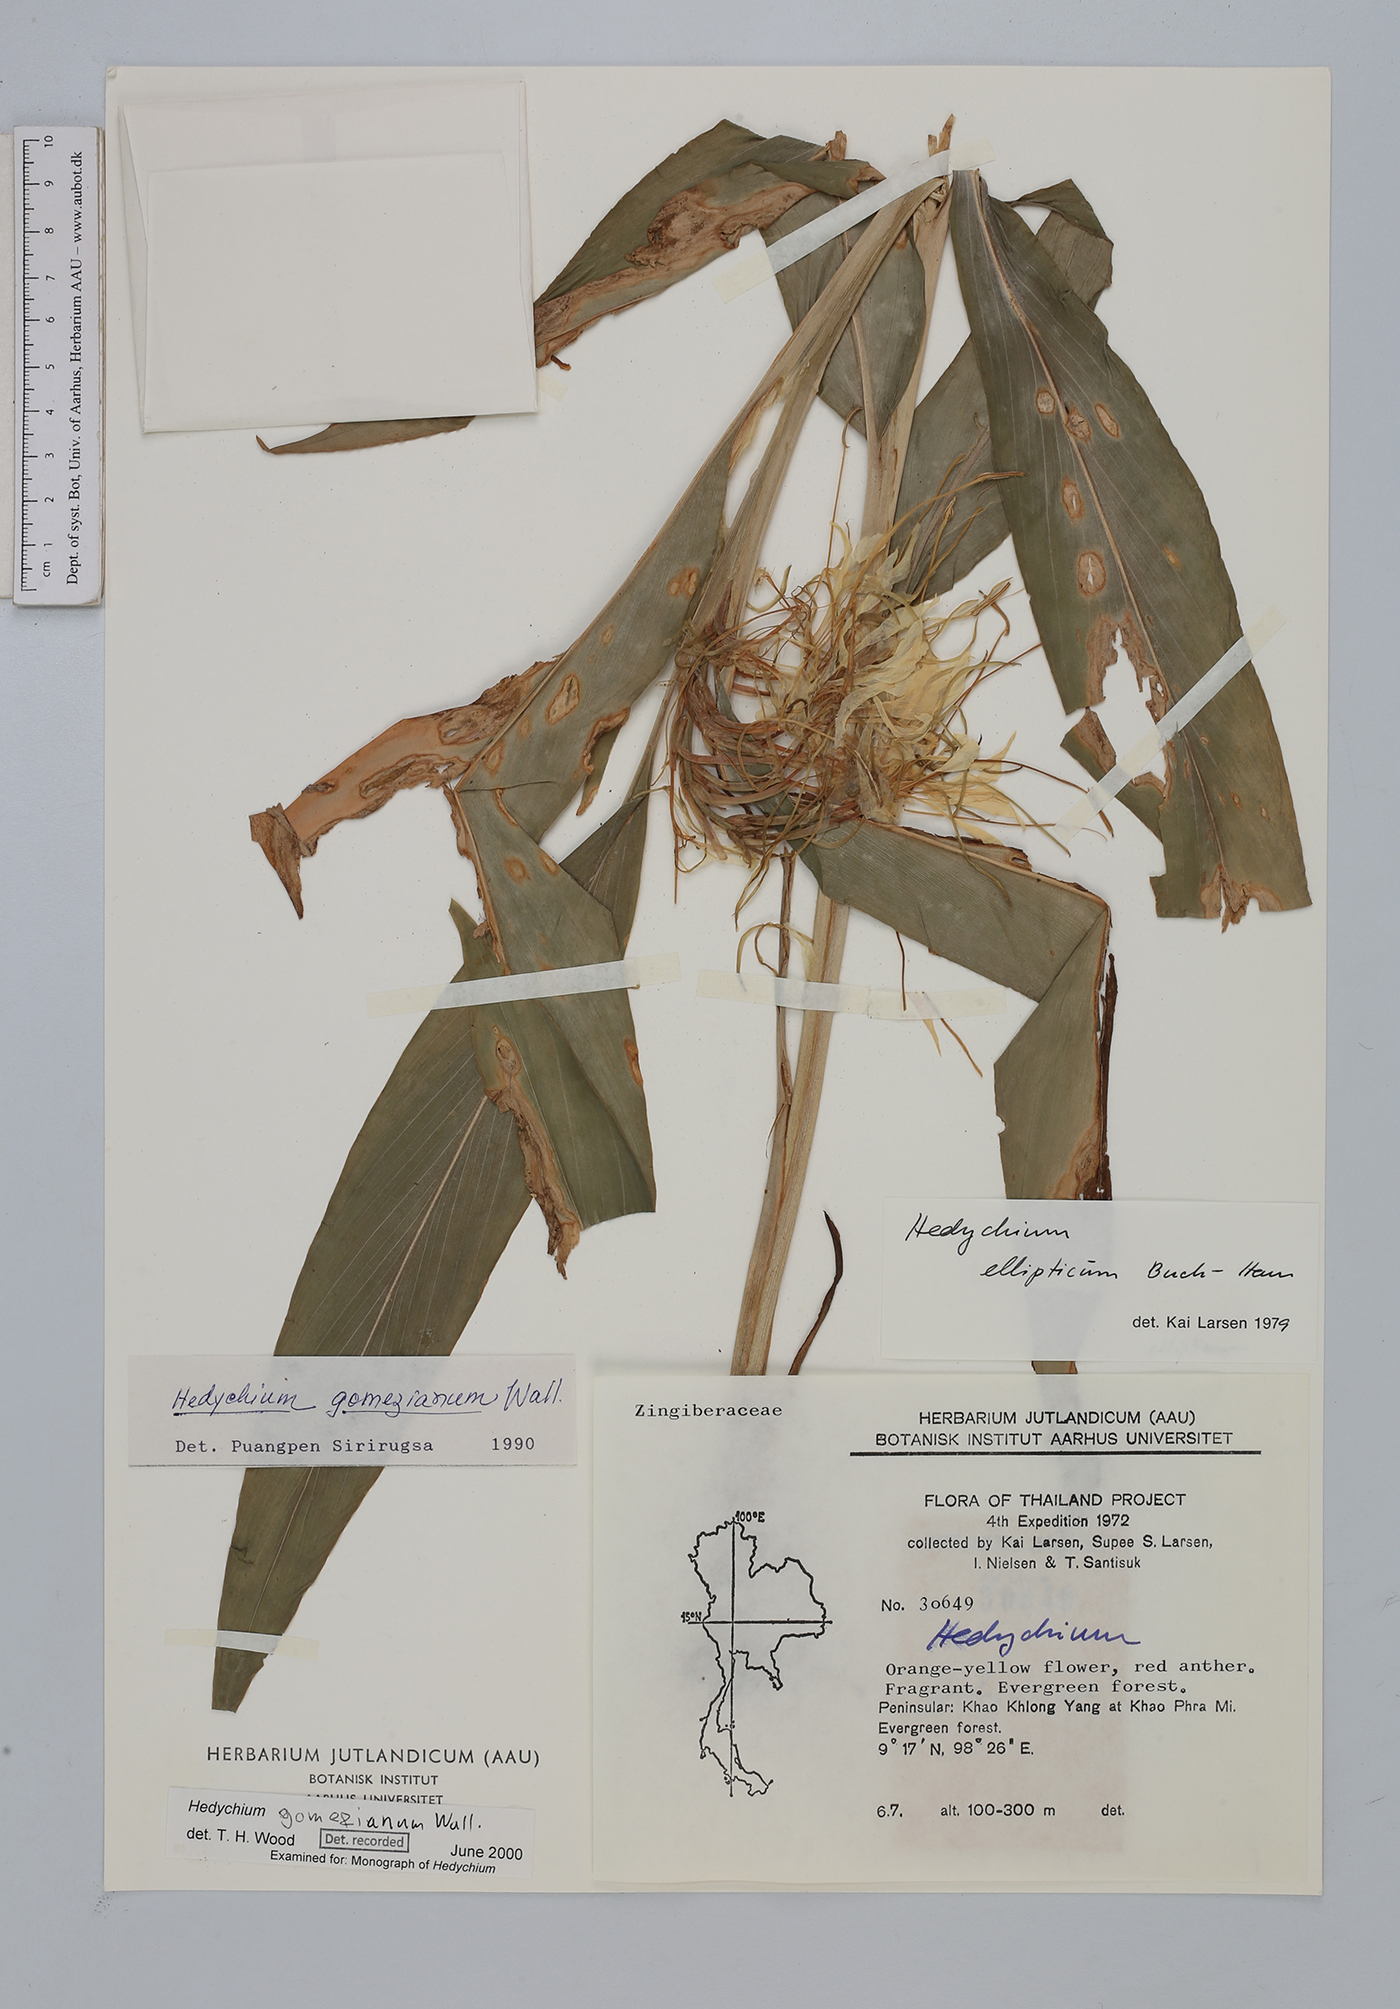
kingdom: Plantae
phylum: Tracheophyta
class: Liliopsida
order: Zingiberales
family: Zingiberaceae
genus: Hedychium
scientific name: Hedychium gomezianum
